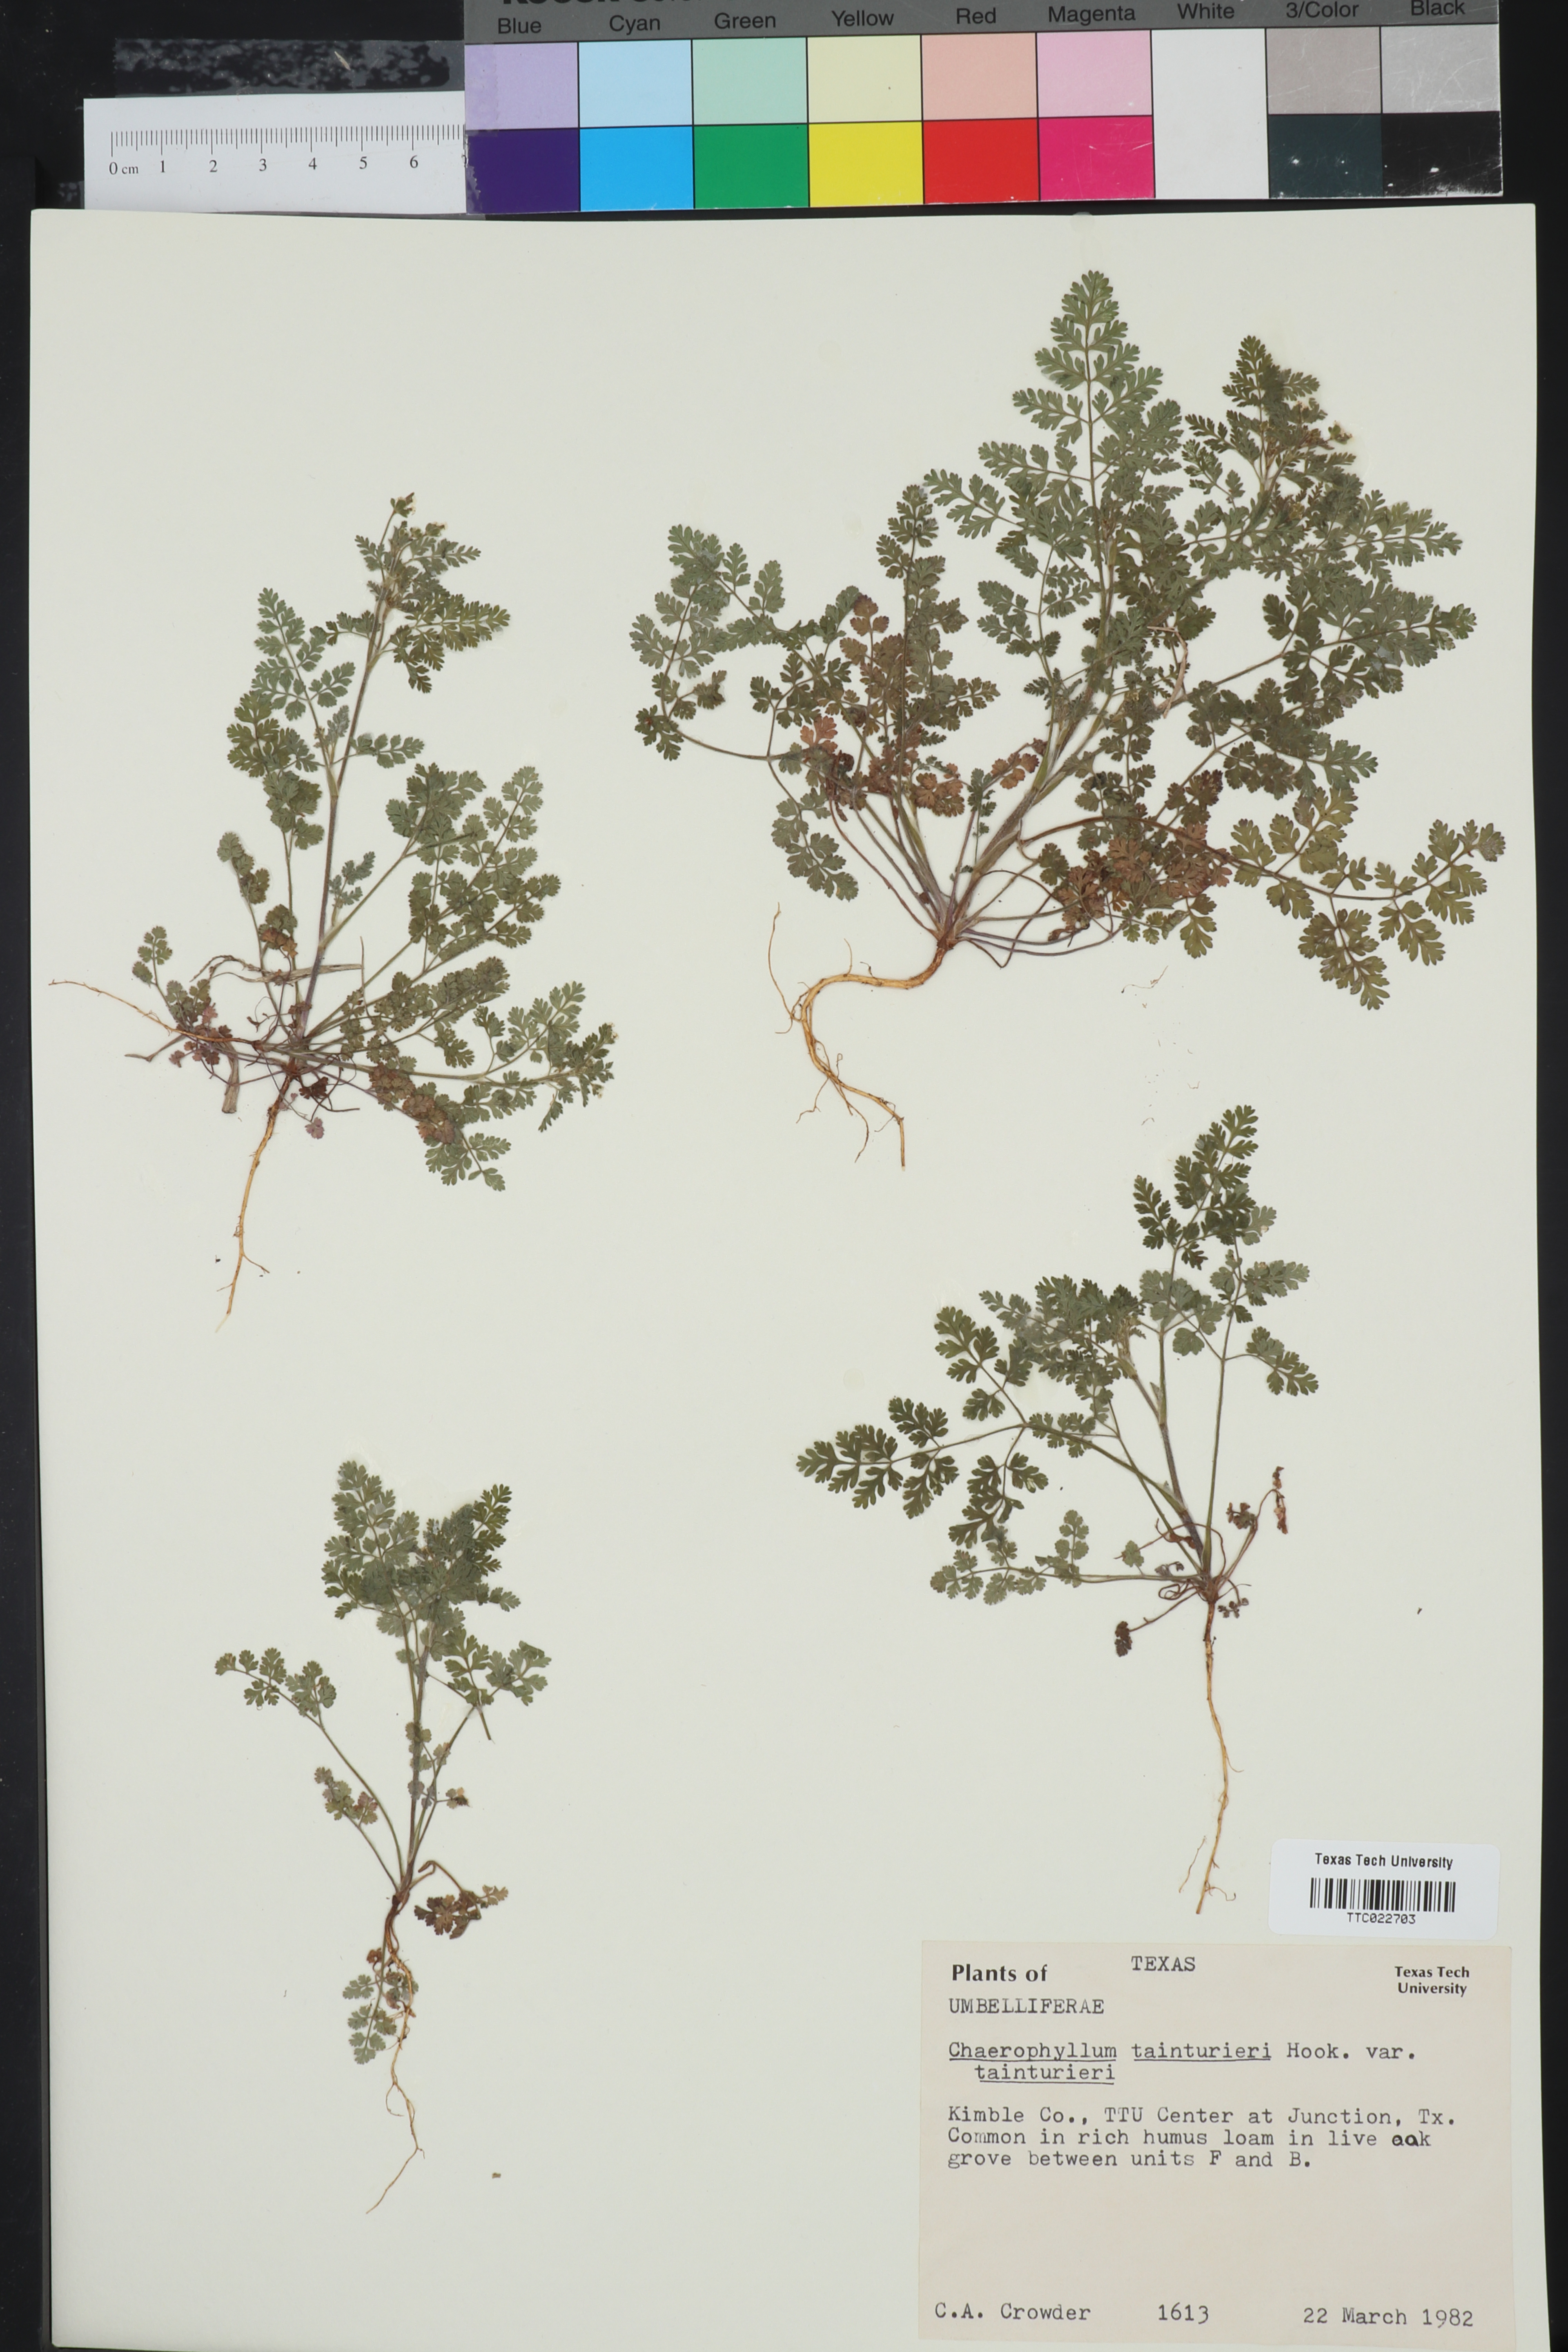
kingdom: Plantae
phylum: Tracheophyta
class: Magnoliopsida
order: Apiales
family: Apiaceae
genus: Chaerophyllum
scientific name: Chaerophyllum tainturieri
